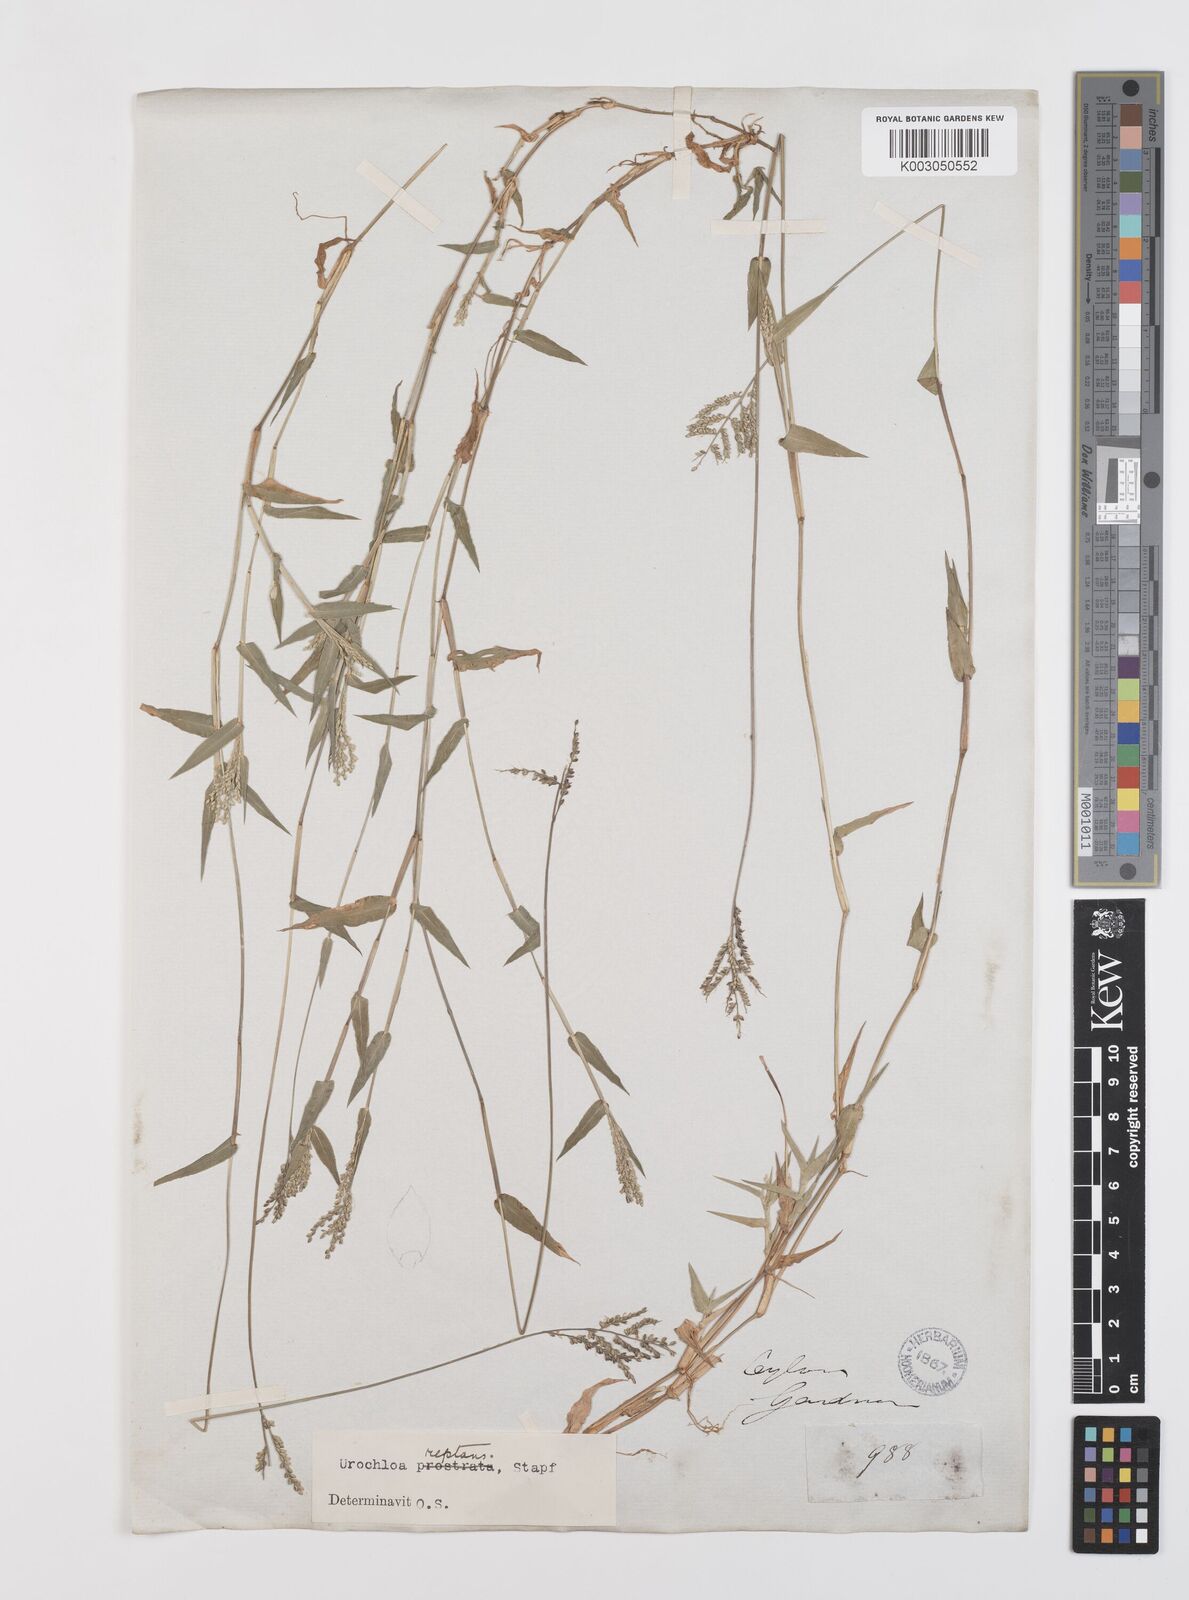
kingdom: Plantae
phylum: Tracheophyta
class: Liliopsida
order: Poales
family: Poaceae
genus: Urochloa
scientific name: Urochloa reptans
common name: Sprawling signalgrass
